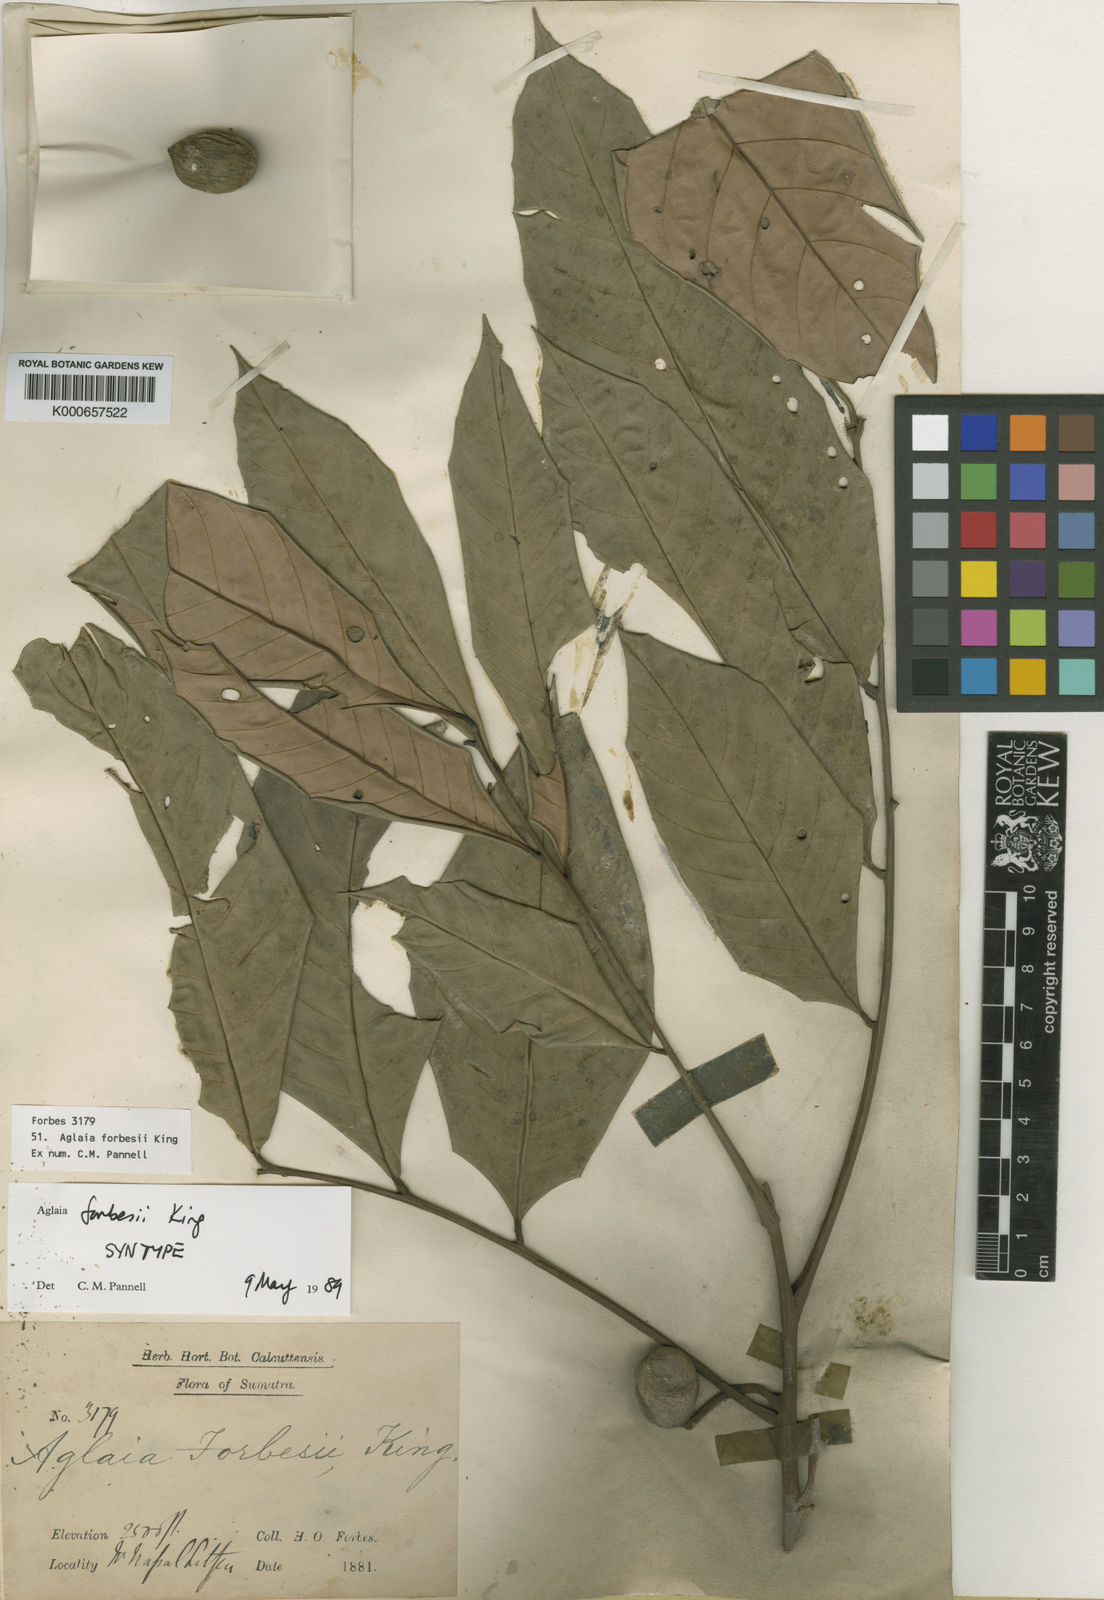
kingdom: Plantae
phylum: Tracheophyta
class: Magnoliopsida
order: Sapindales
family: Meliaceae
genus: Aglaia
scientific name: Aglaia forbesii
